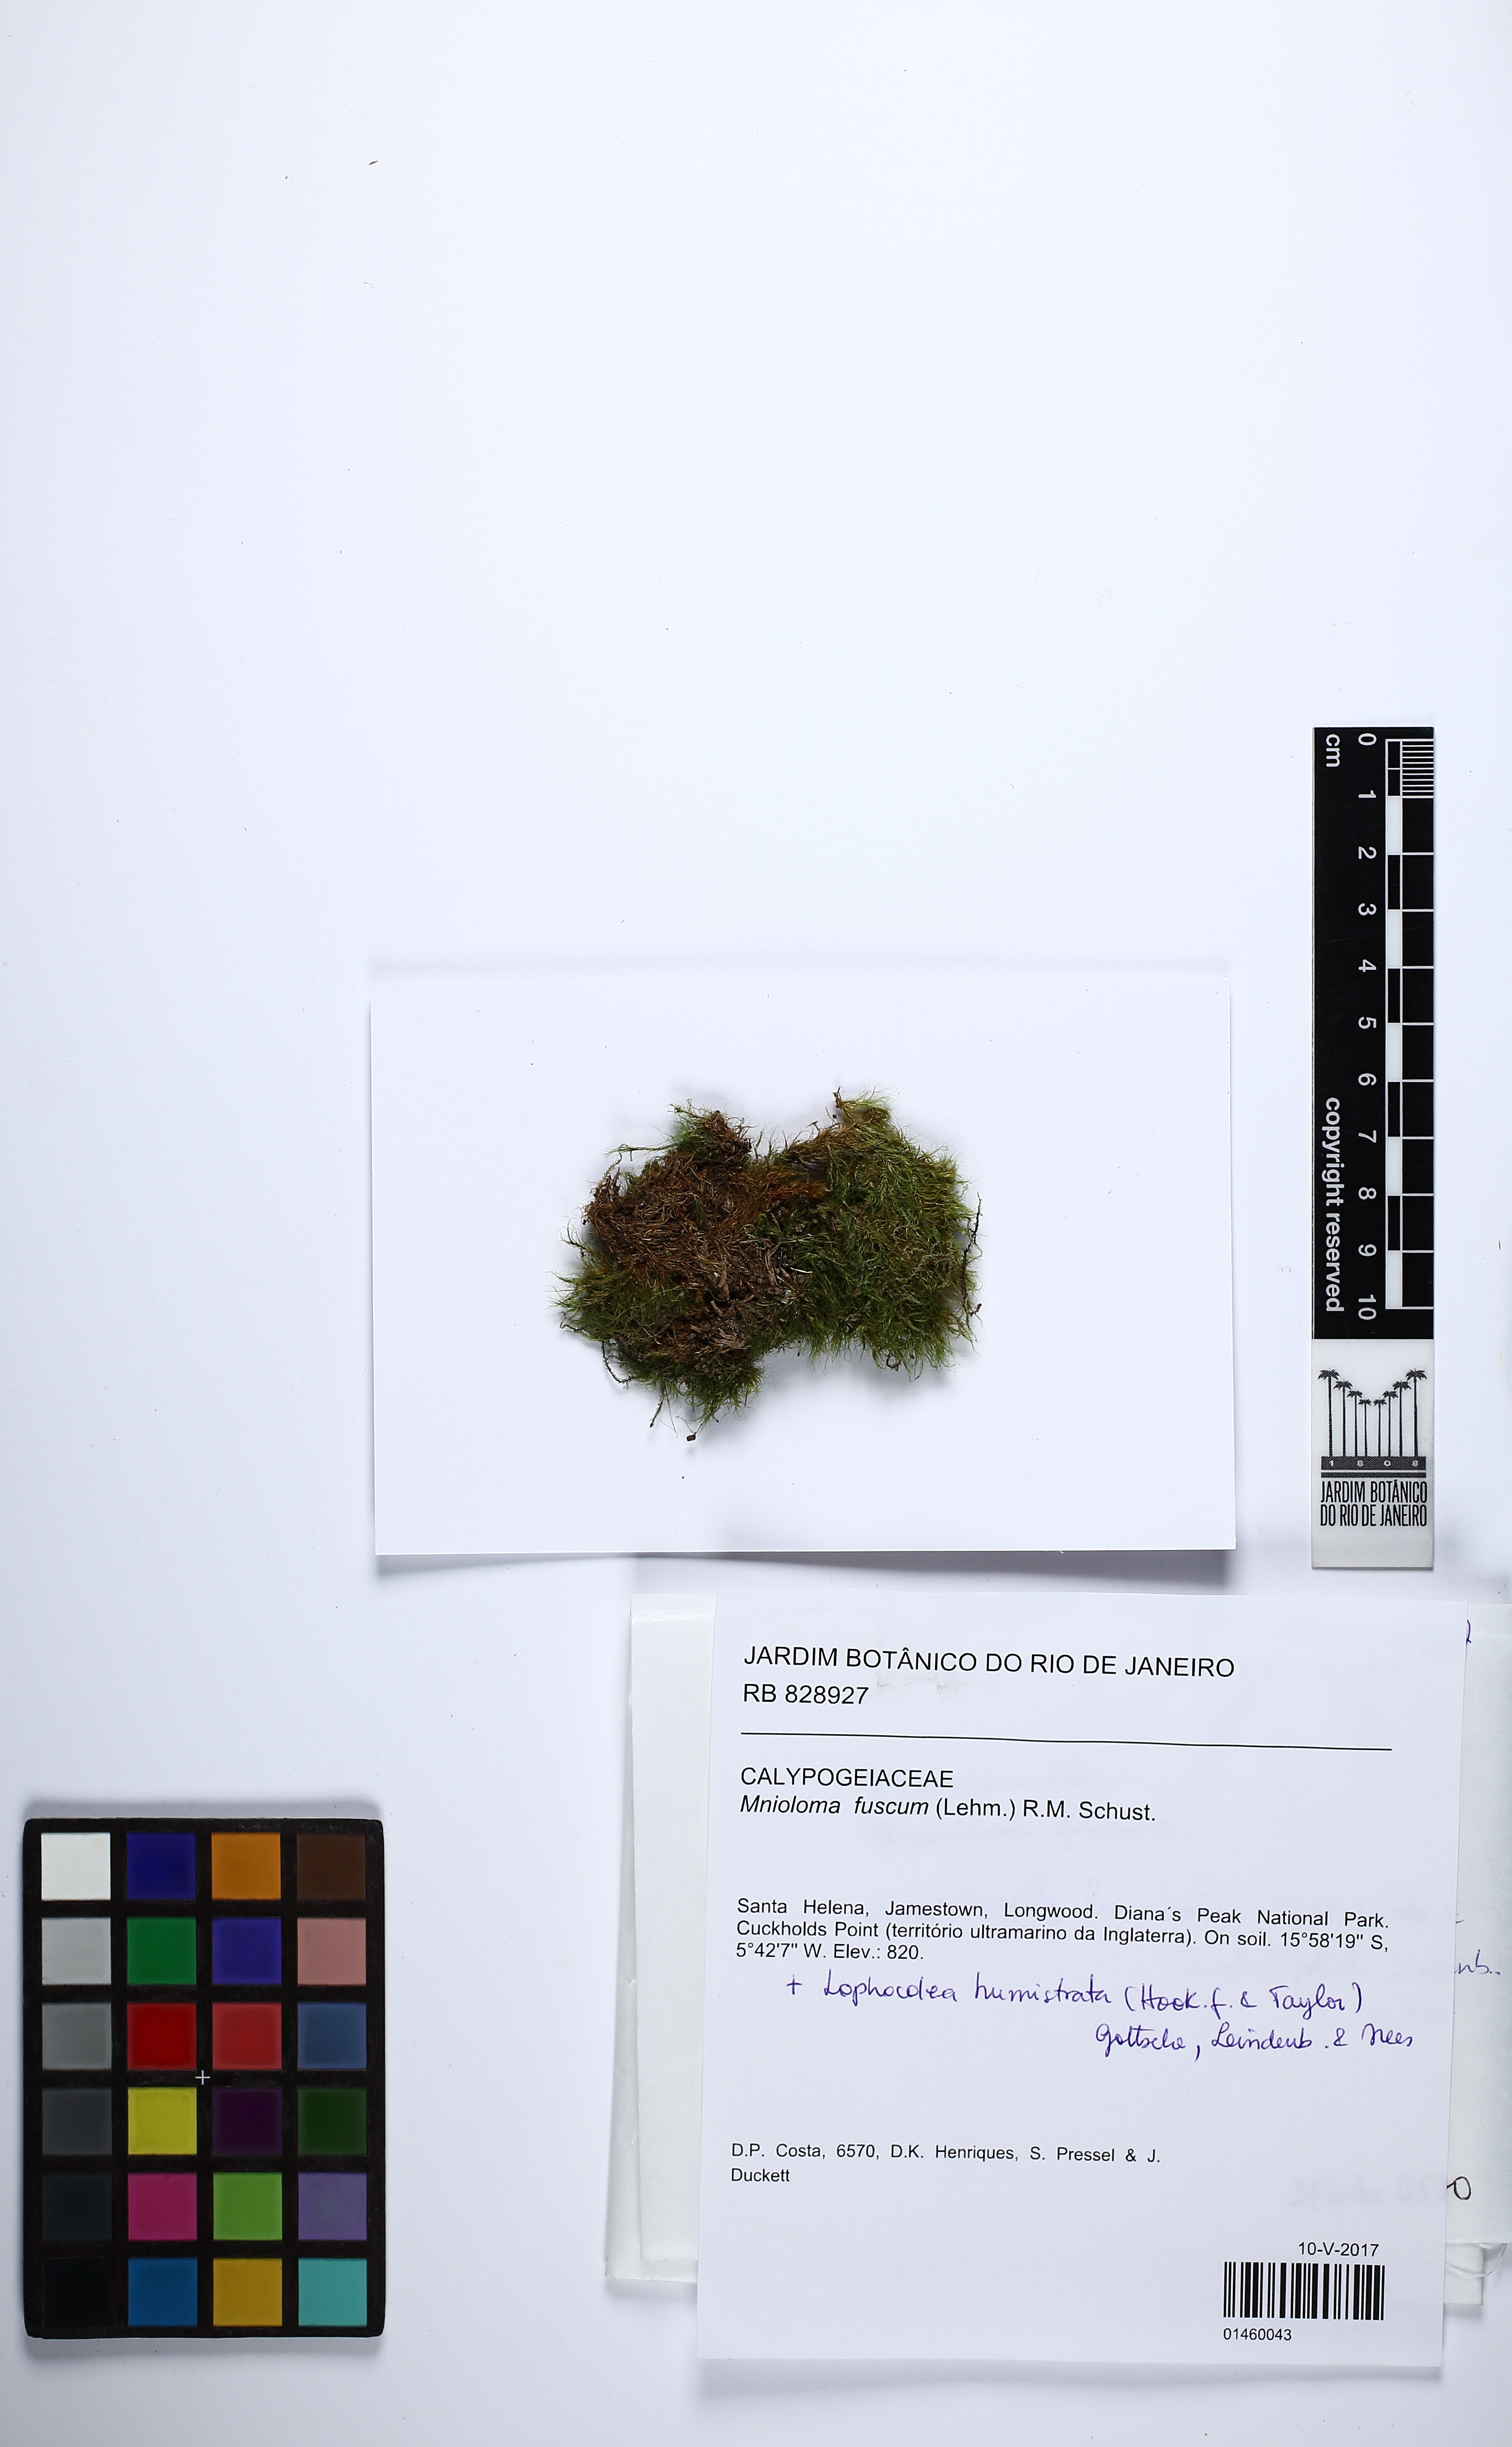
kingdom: Plantae
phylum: Marchantiophyta
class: Jungermanniopsida
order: Jungermanniales
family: Calypogeiaceae
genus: Mnioloma
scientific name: Mnioloma fuscum
